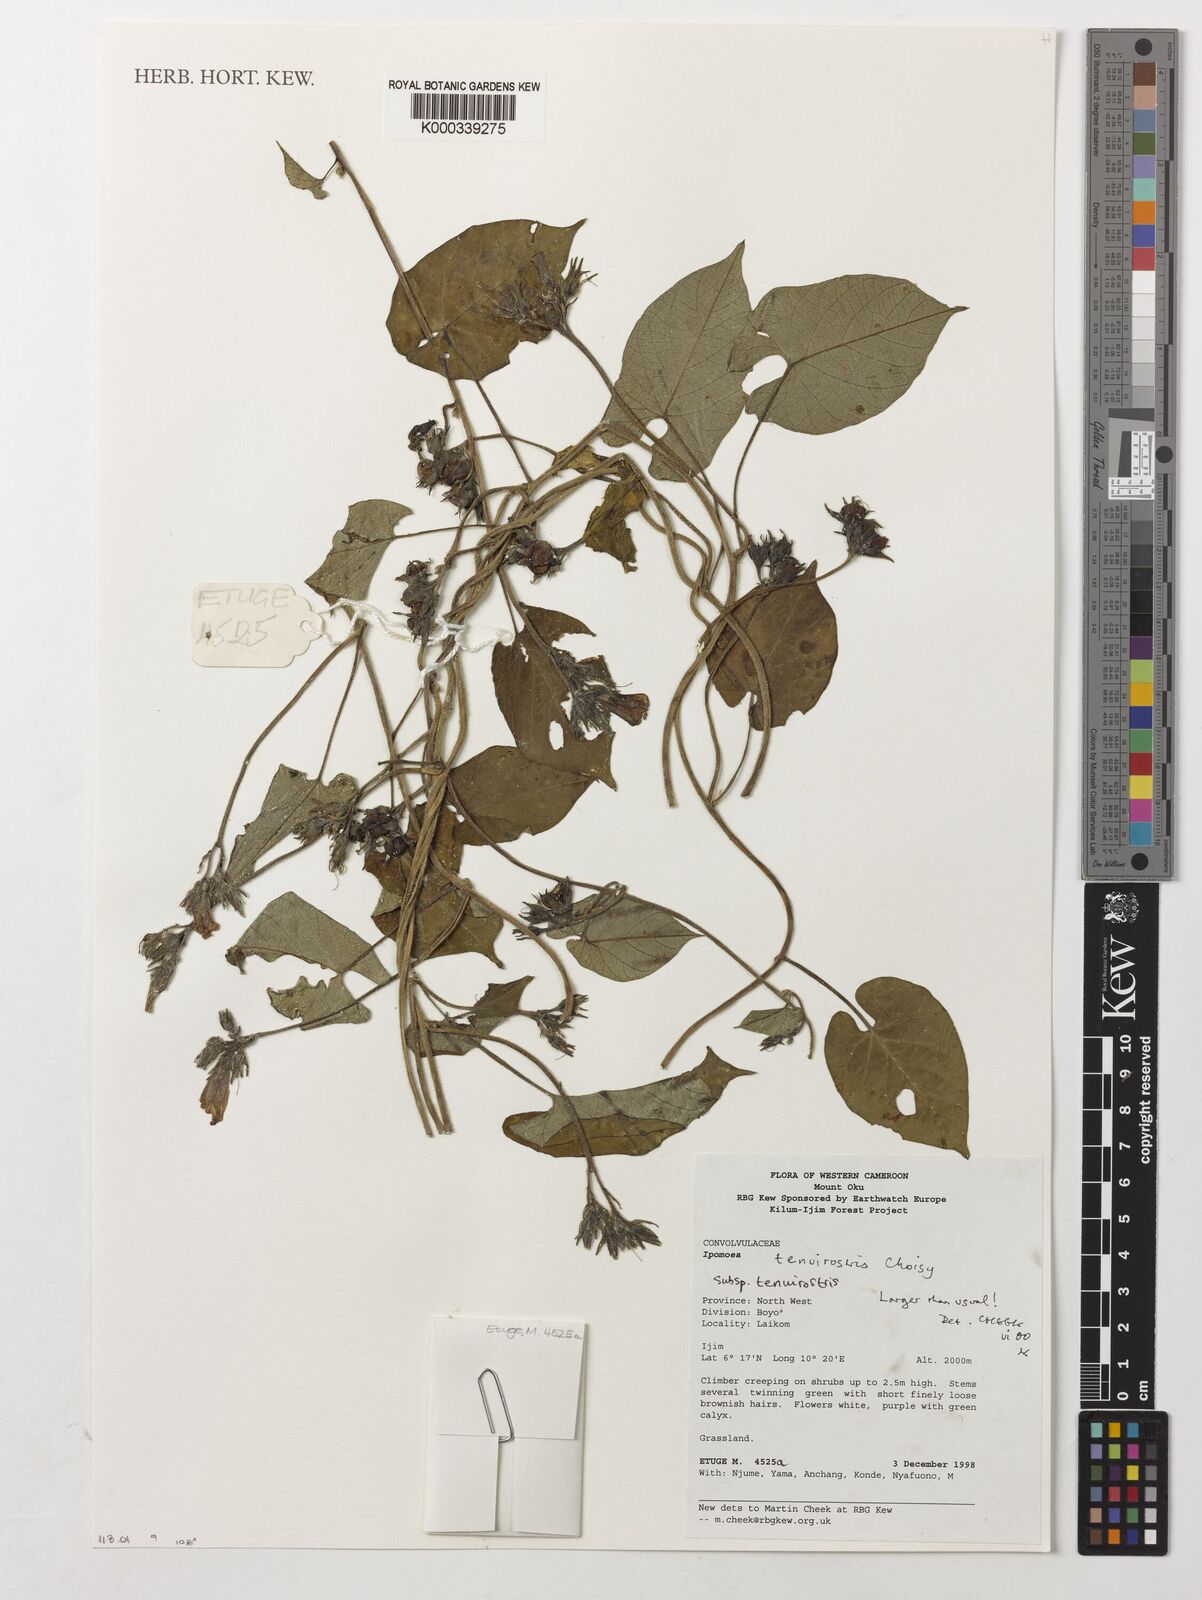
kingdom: Plantae
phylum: Tracheophyta
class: Magnoliopsida
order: Solanales
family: Convolvulaceae
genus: Ipomoea
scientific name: Ipomoea tenuirostris
